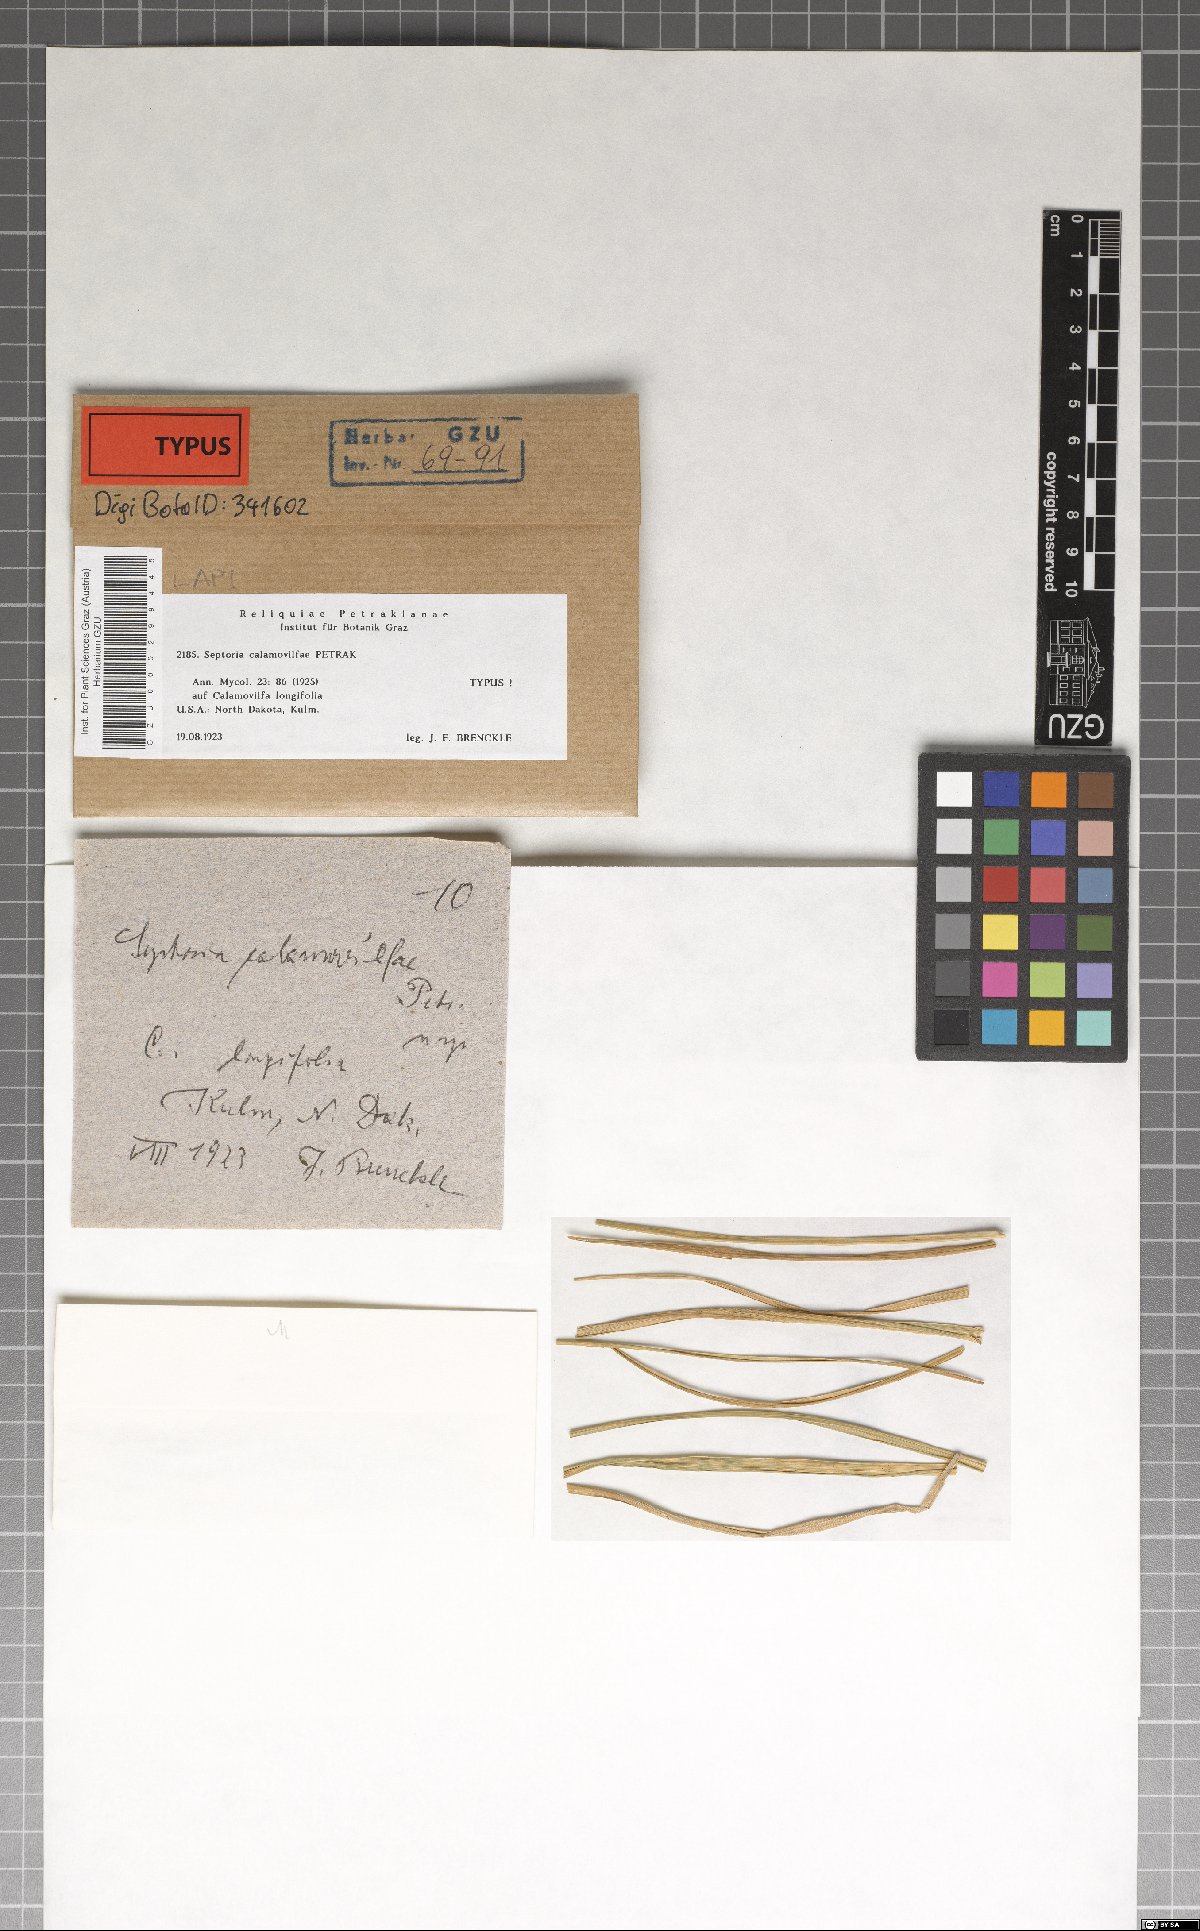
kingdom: Fungi
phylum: Ascomycota
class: Dothideomycetes
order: Mycosphaerellales
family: Mycosphaerellaceae
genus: Septoria
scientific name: Septoria
